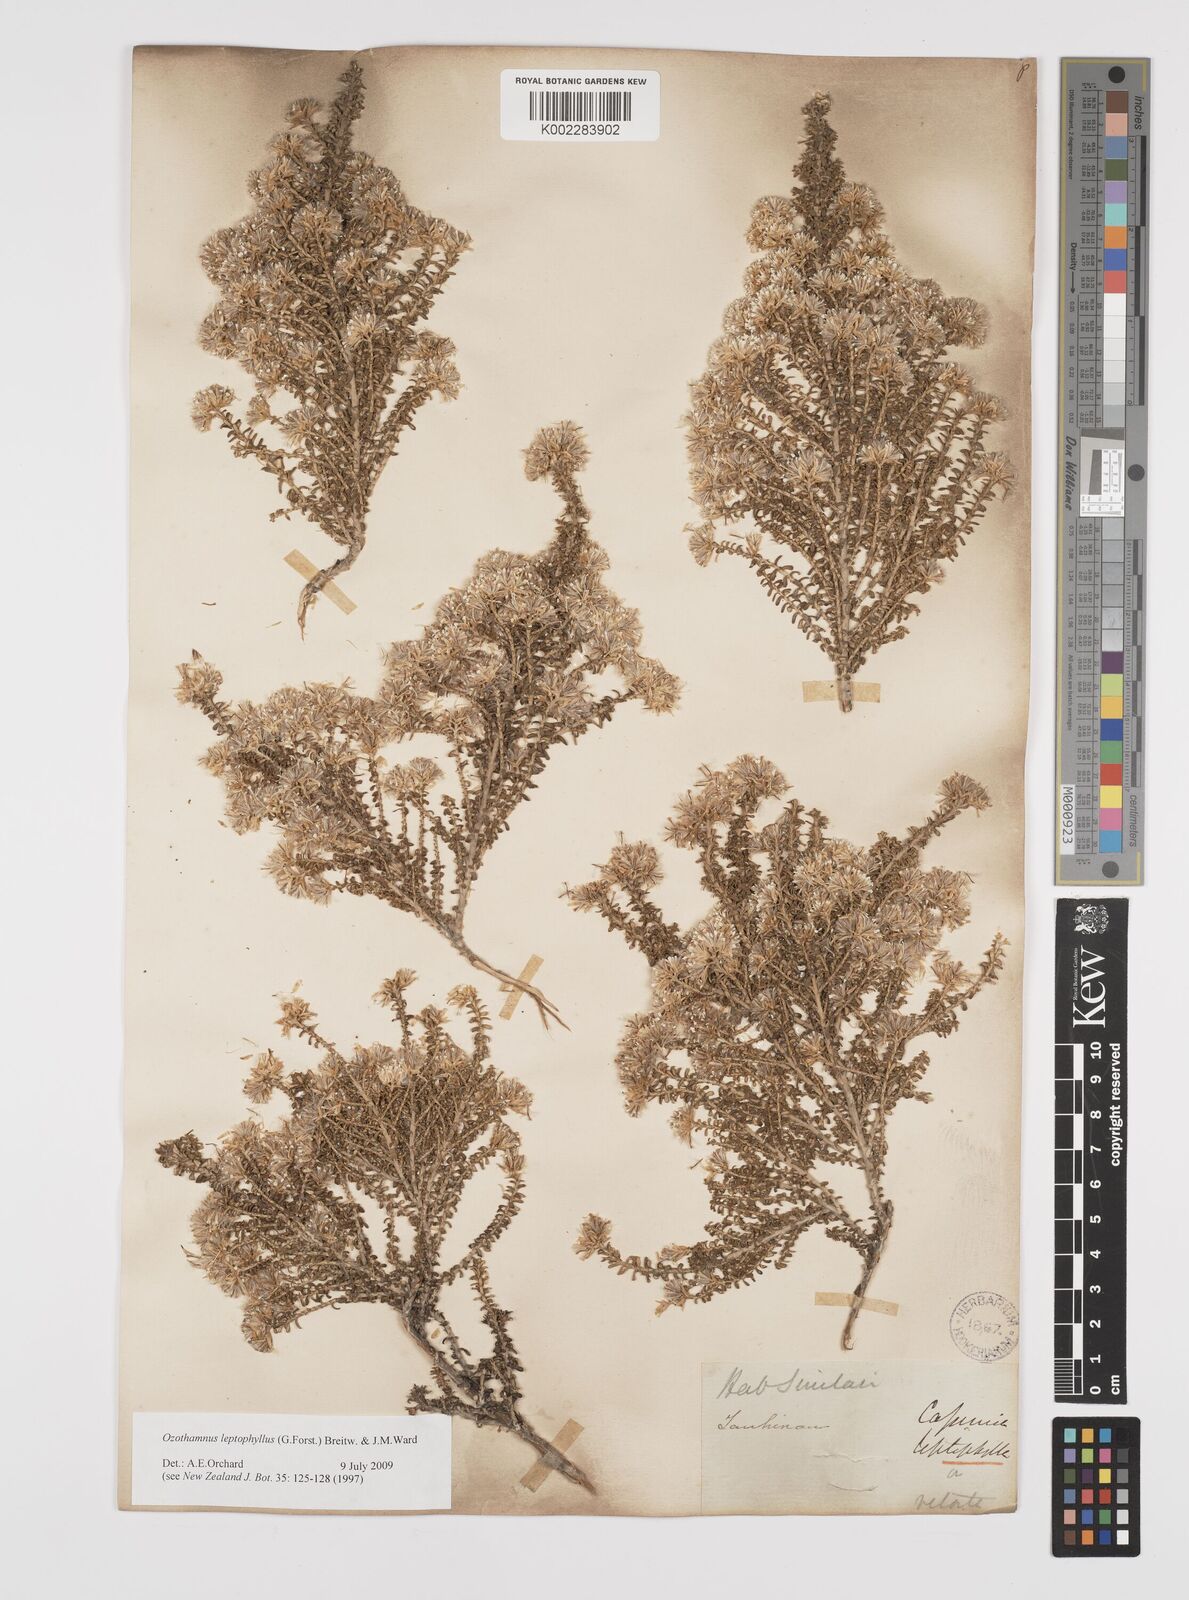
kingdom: Plantae
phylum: Tracheophyta
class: Magnoliopsida
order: Asterales
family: Asteraceae
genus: Ozothamnus
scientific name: Ozothamnus leptophyllus
